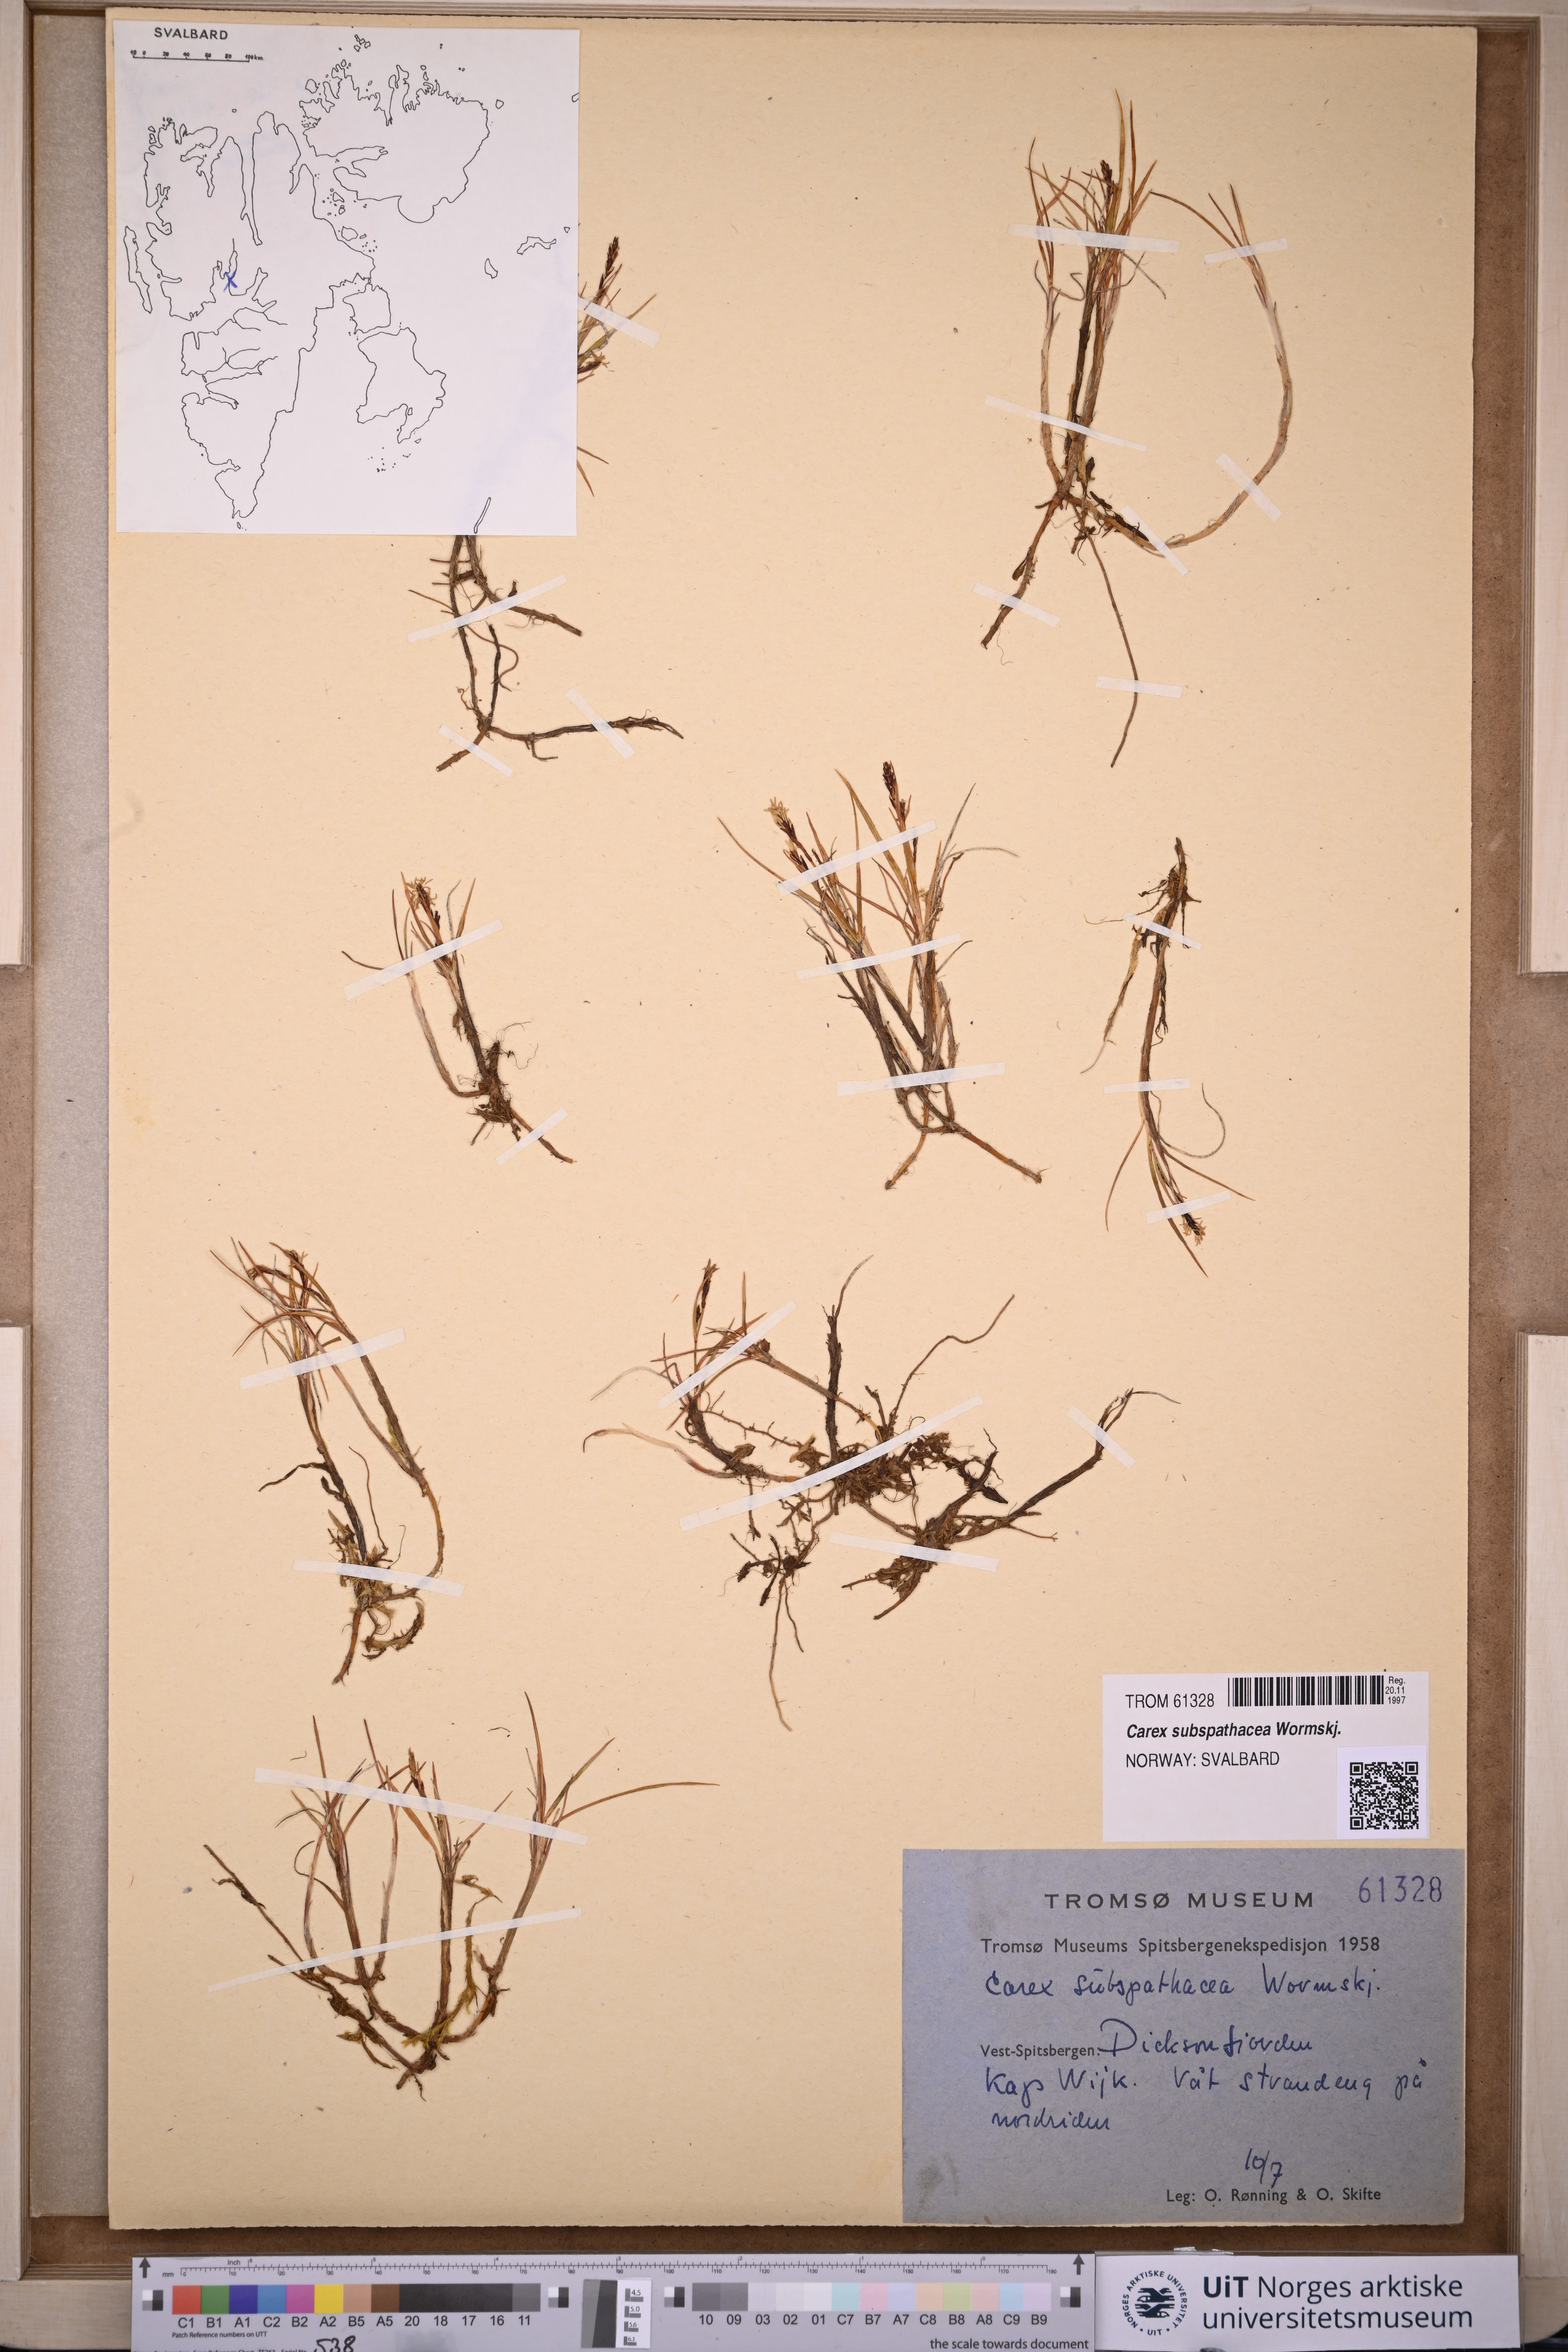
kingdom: Plantae
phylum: Tracheophyta
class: Liliopsida
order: Poales
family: Cyperaceae
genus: Carex
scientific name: Carex subspathacea
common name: Hoppner's sedge
